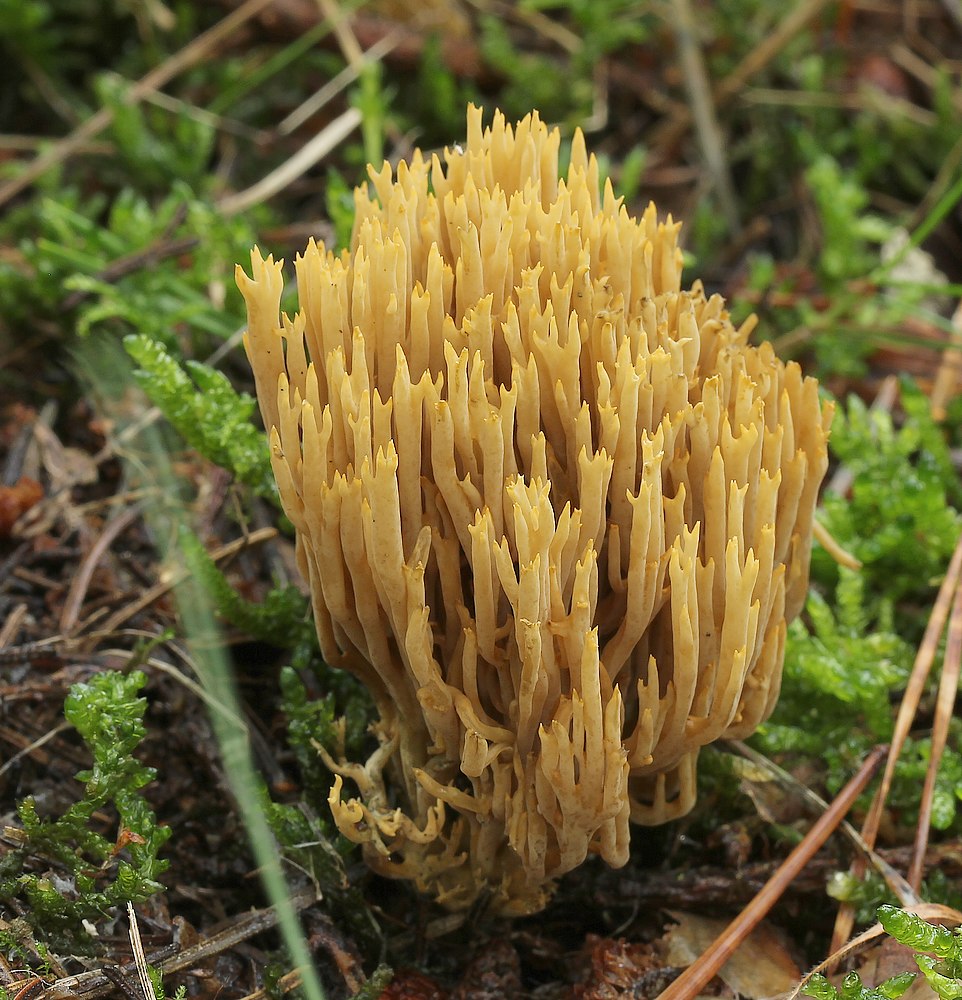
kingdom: Fungi
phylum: Basidiomycota
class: Agaricomycetes
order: Gomphales
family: Gomphaceae
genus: Phaeoclavulina
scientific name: Phaeoclavulina eumorpha
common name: gran-koralsvamp
